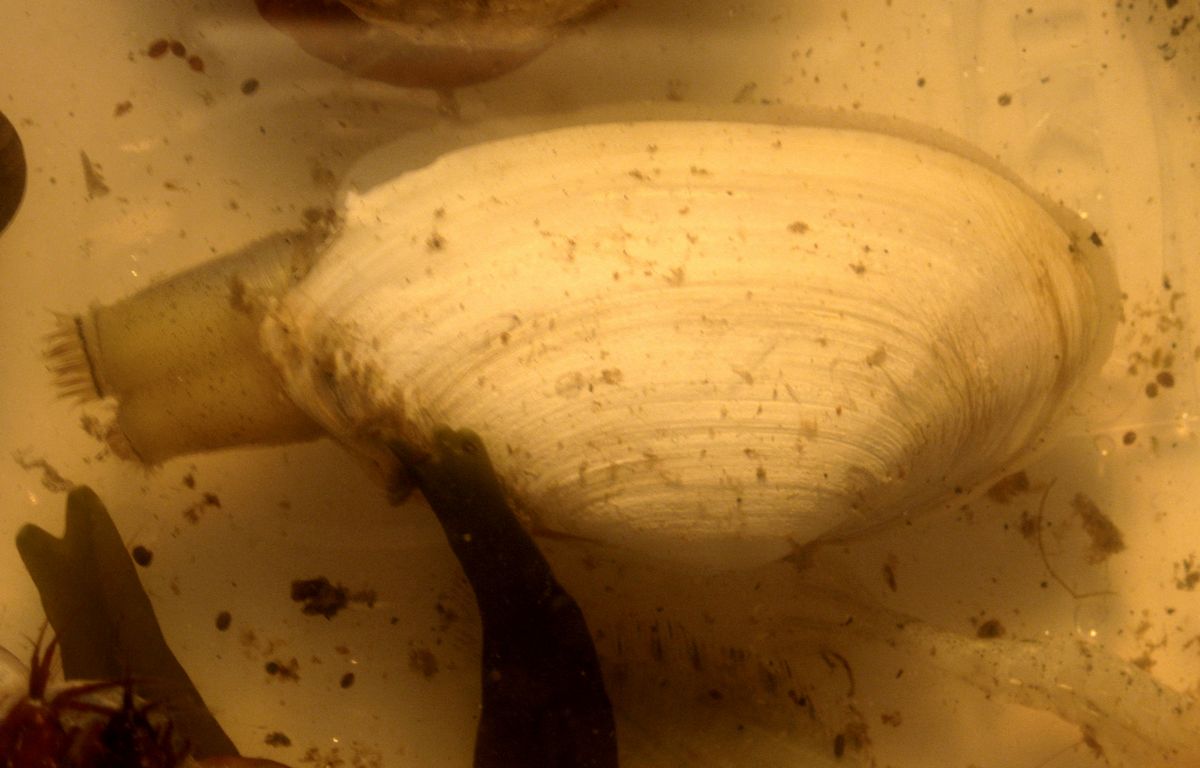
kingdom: Animalia
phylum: Mollusca
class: Bivalvia
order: Myida
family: Myidae
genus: Mya
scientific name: Mya arenaria
